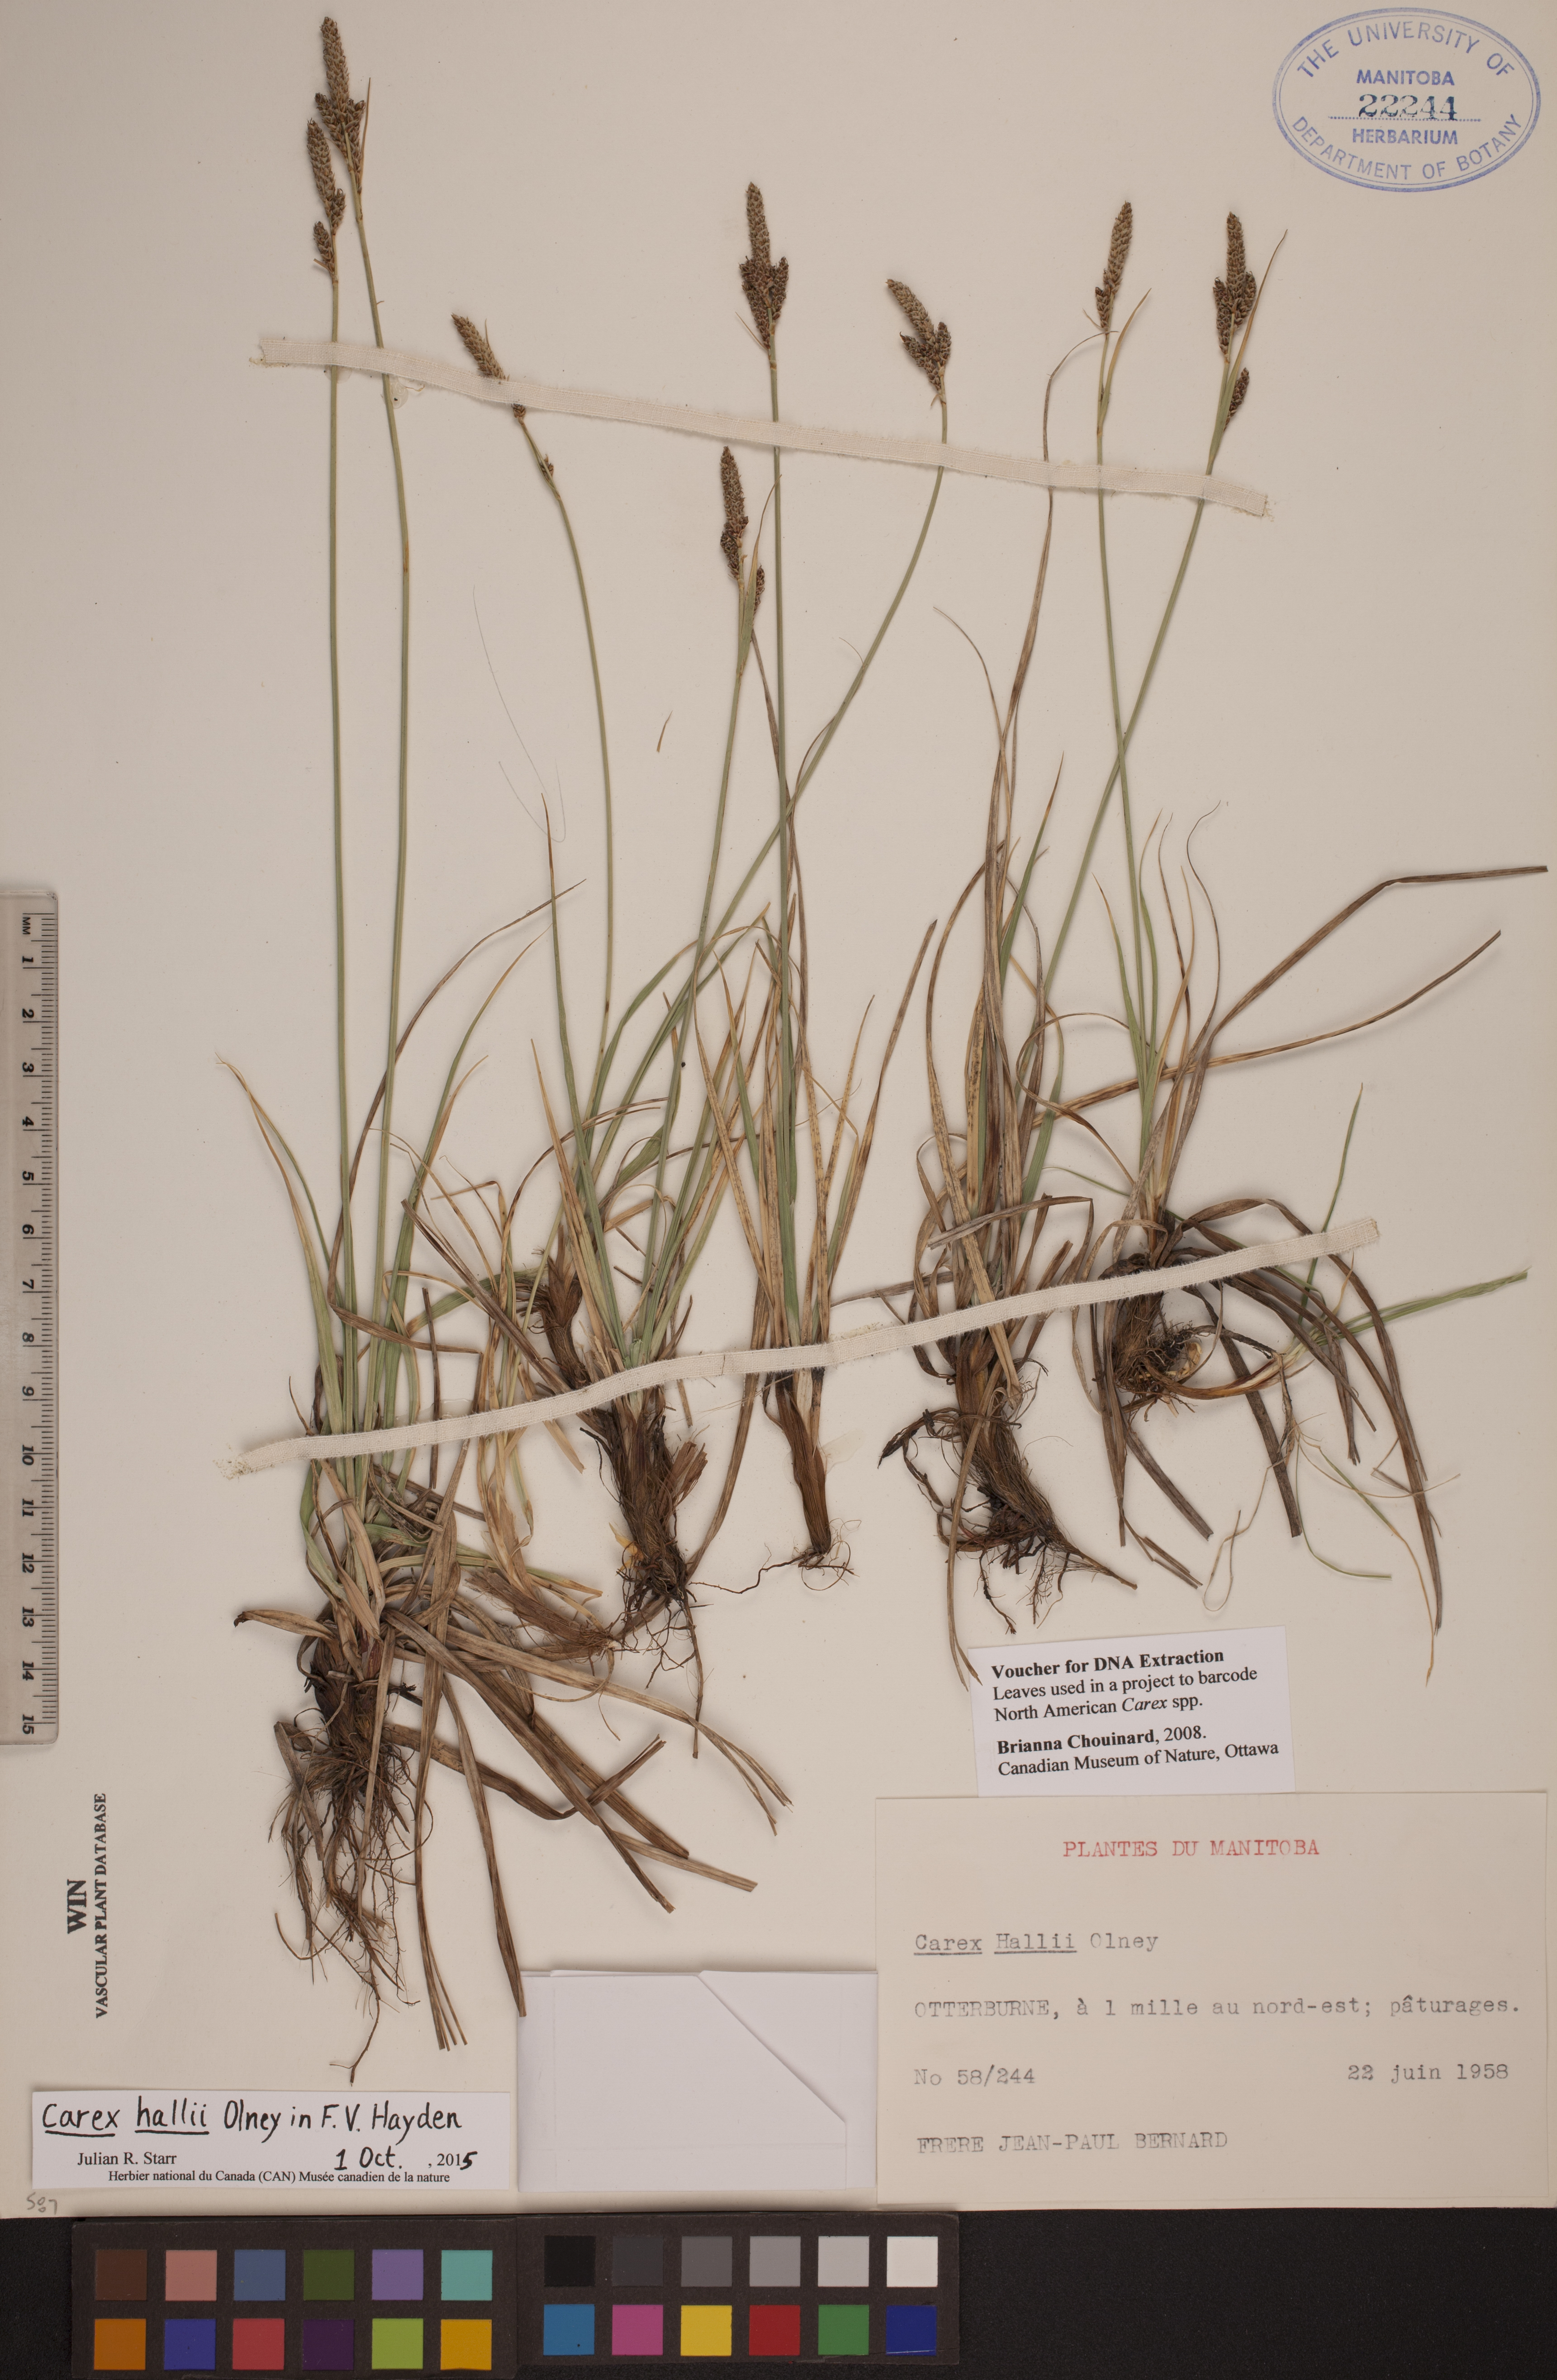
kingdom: Plantae
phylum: Tracheophyta
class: Liliopsida
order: Poales
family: Cyperaceae
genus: Carex
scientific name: Carex hallii
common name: Deer sedge
